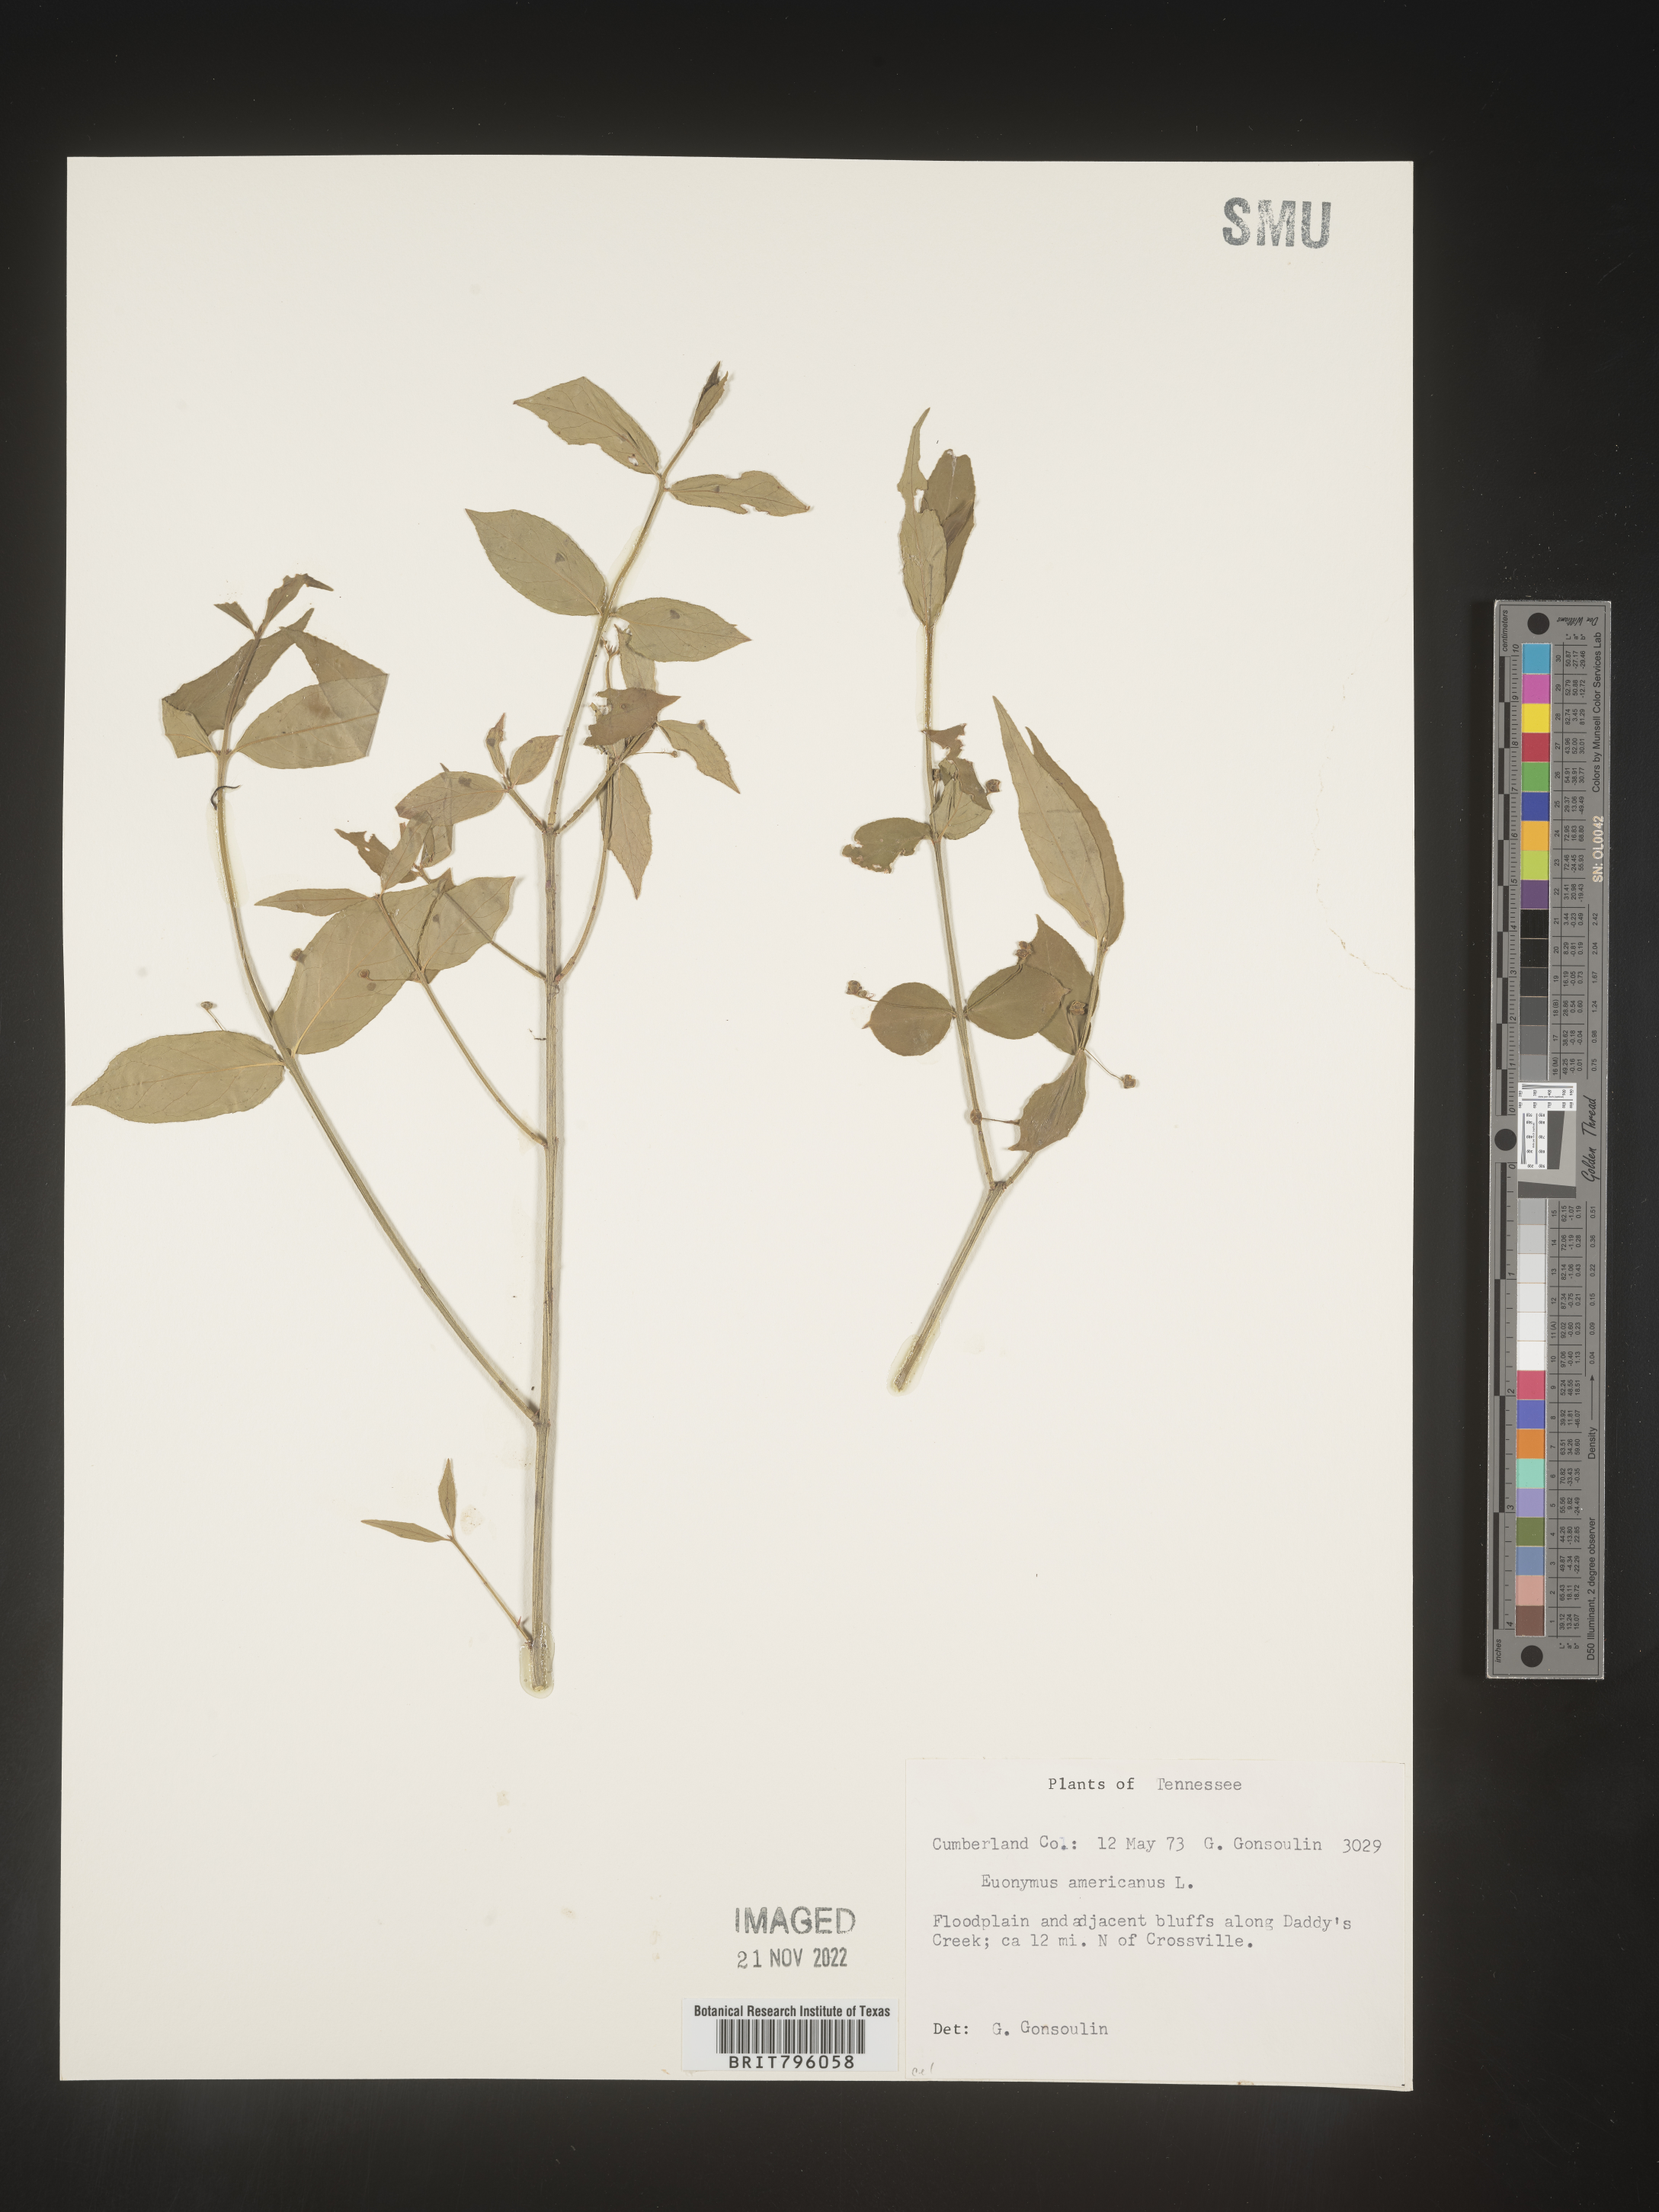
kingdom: Plantae
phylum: Tracheophyta
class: Magnoliopsida
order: Celastrales
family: Celastraceae
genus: Euonymus
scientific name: Euonymus americanus
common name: Bursting-heart
